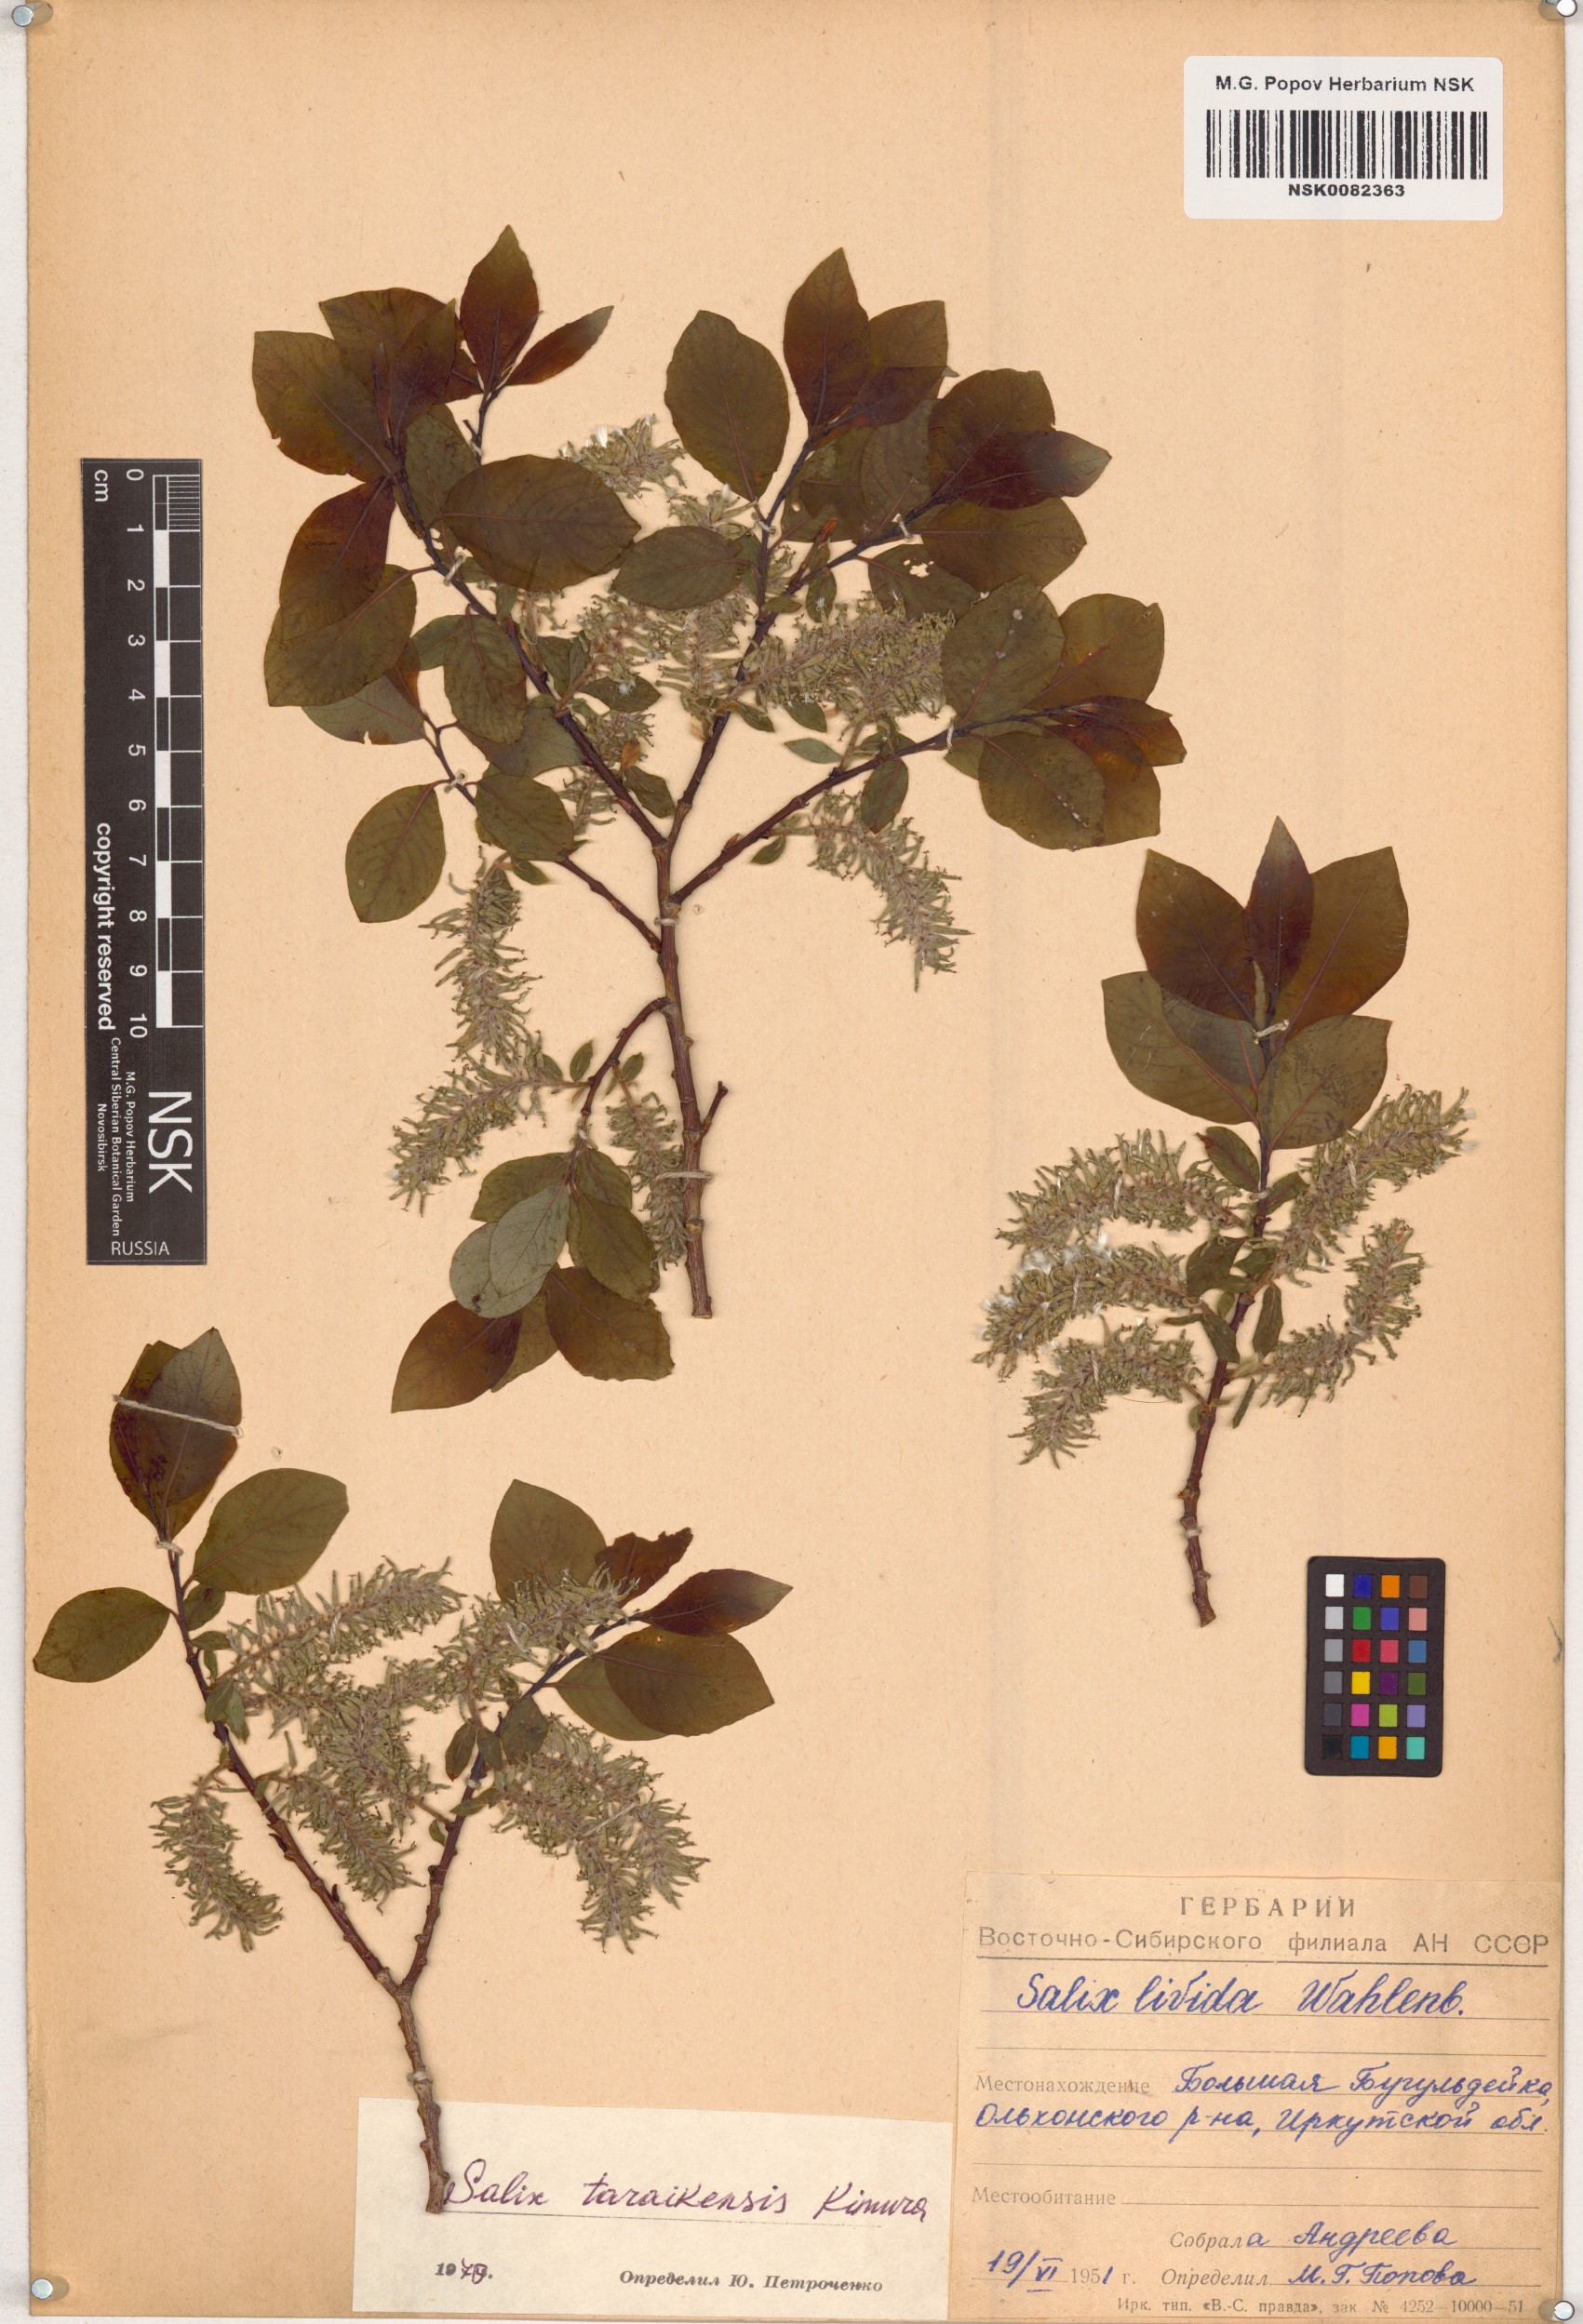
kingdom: Plantae
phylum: Tracheophyta
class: Magnoliopsida
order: Malpighiales
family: Salicaceae
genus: Salix
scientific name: Salix taraikensis
